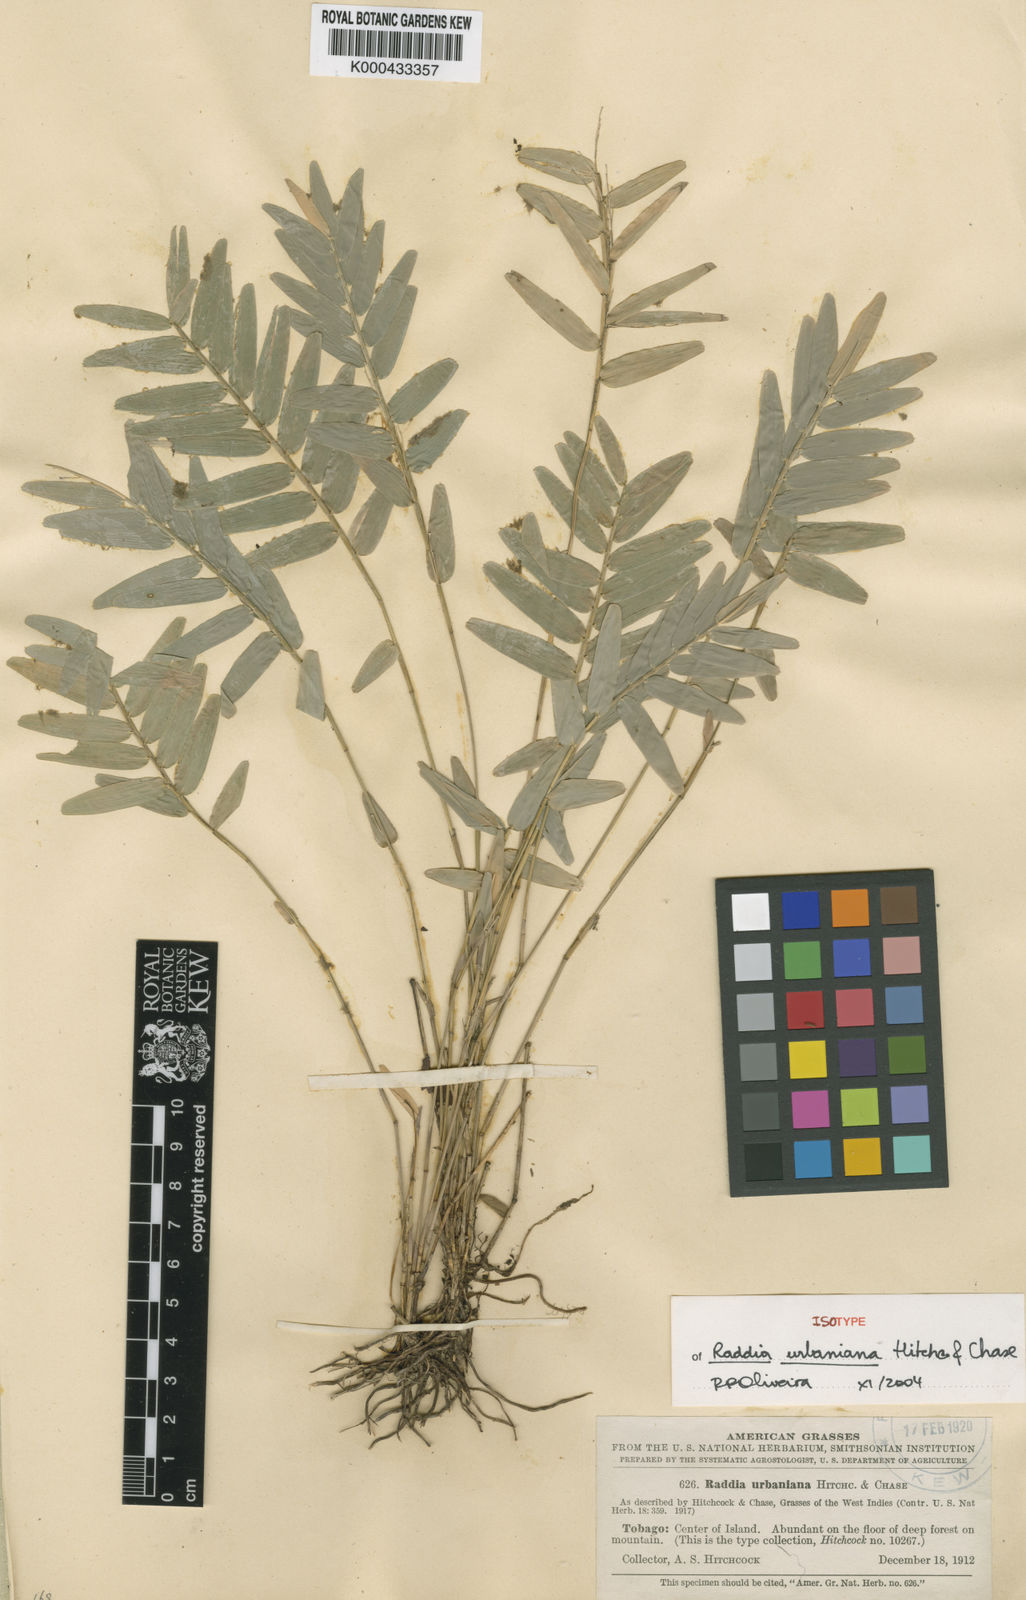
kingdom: Plantae
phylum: Tracheophyta
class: Liliopsida
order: Poales
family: Poaceae
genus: Raddia
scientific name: Raddia guianensis
